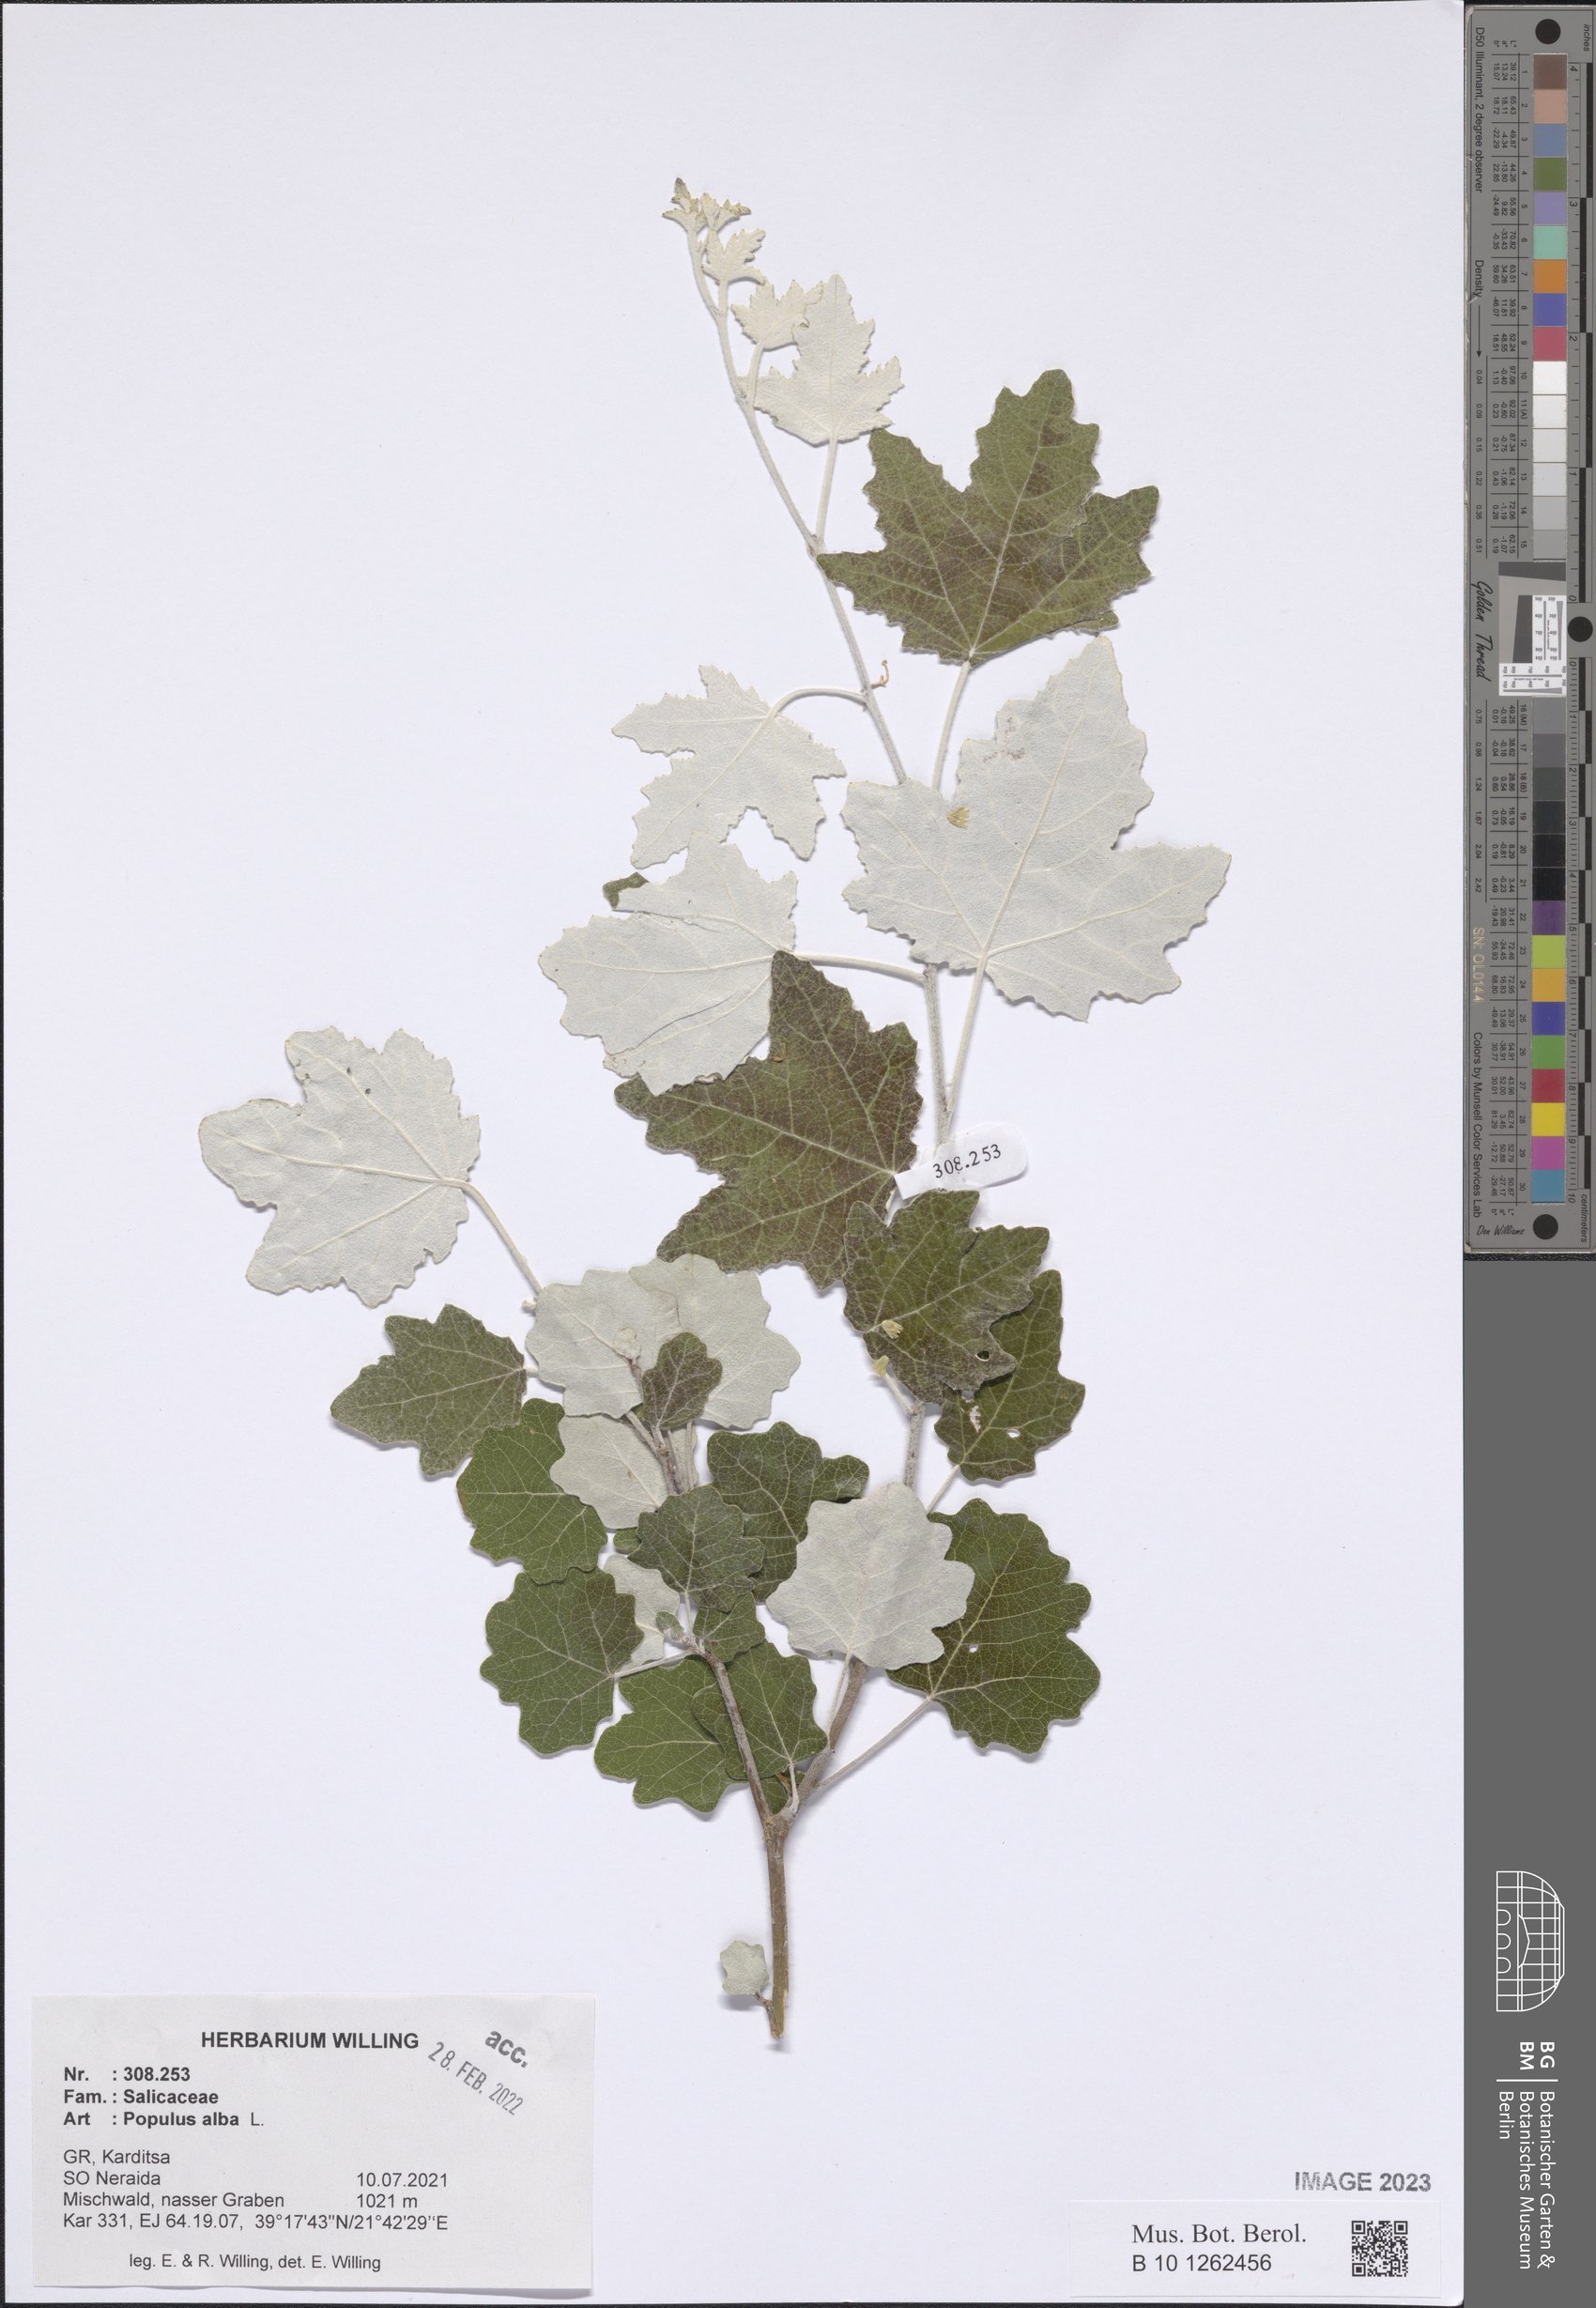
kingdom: Plantae
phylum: Tracheophyta
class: Magnoliopsida
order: Malpighiales
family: Salicaceae
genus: Populus
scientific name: Populus alba
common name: White poplar
